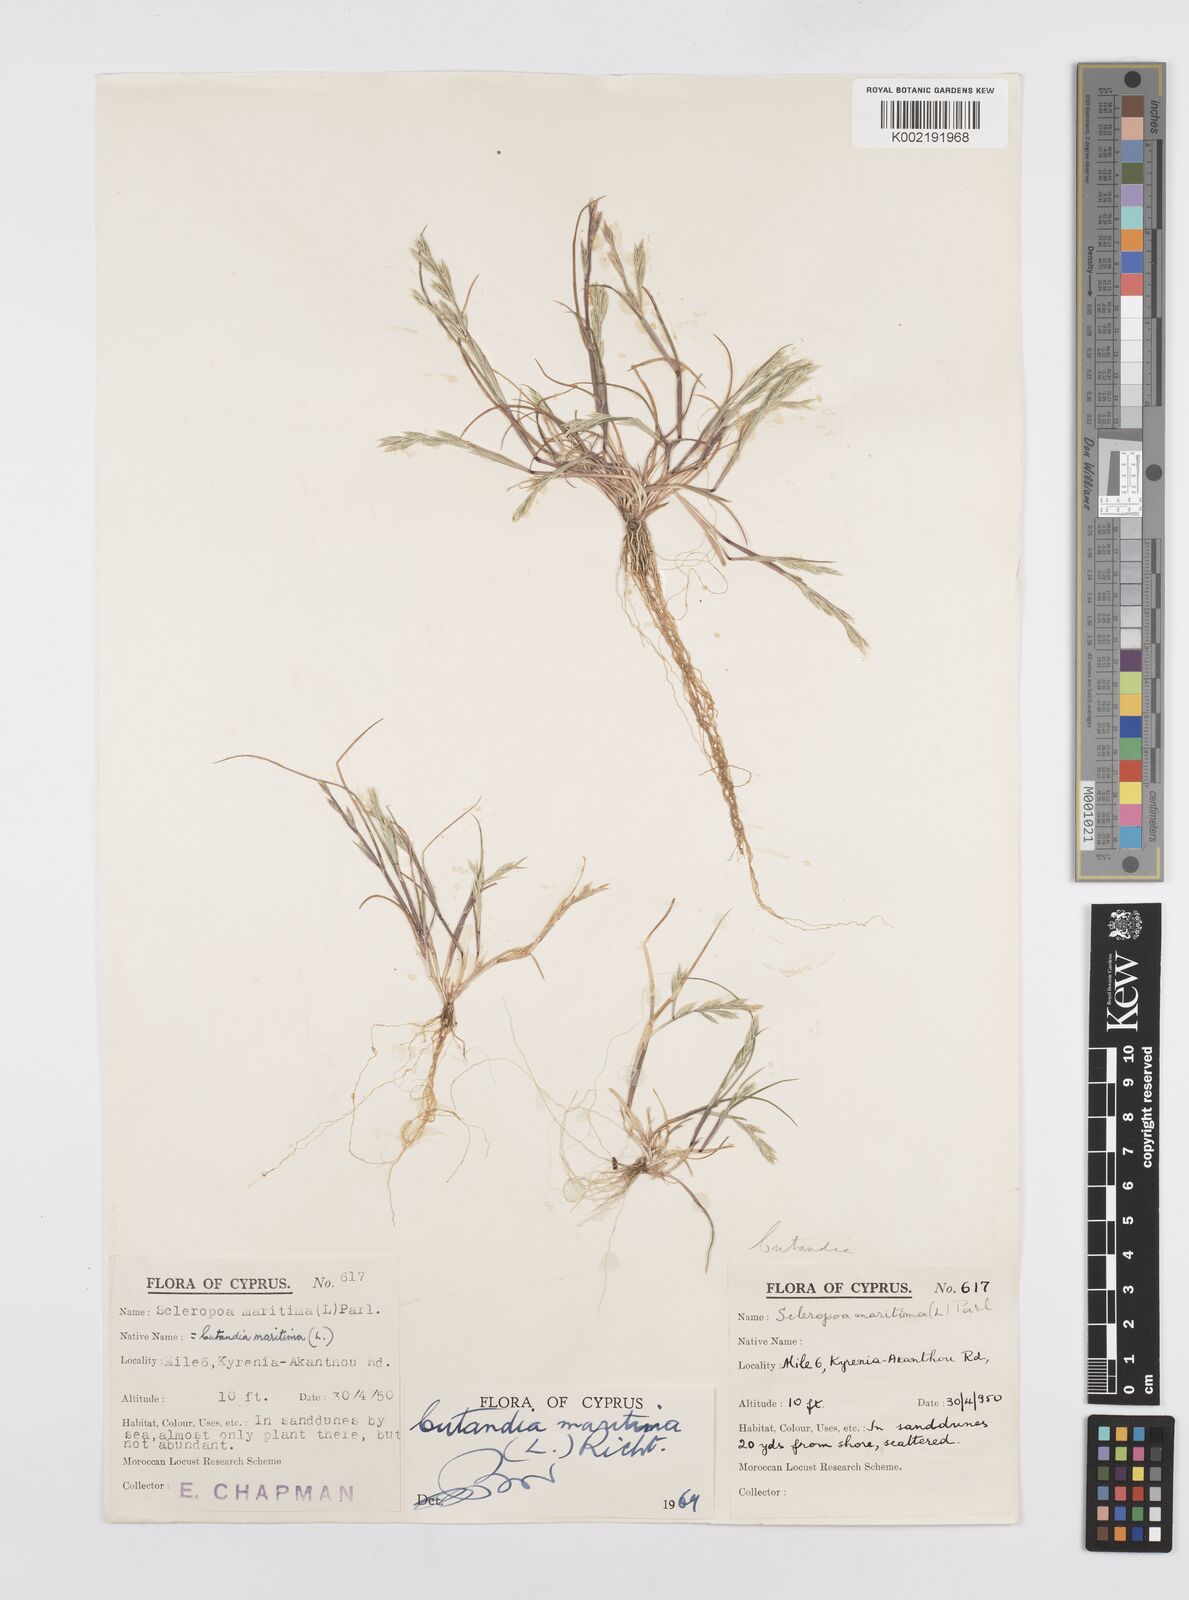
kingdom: Plantae
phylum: Tracheophyta
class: Liliopsida
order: Poales
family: Poaceae
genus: Cutandia
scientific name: Cutandia maritima
